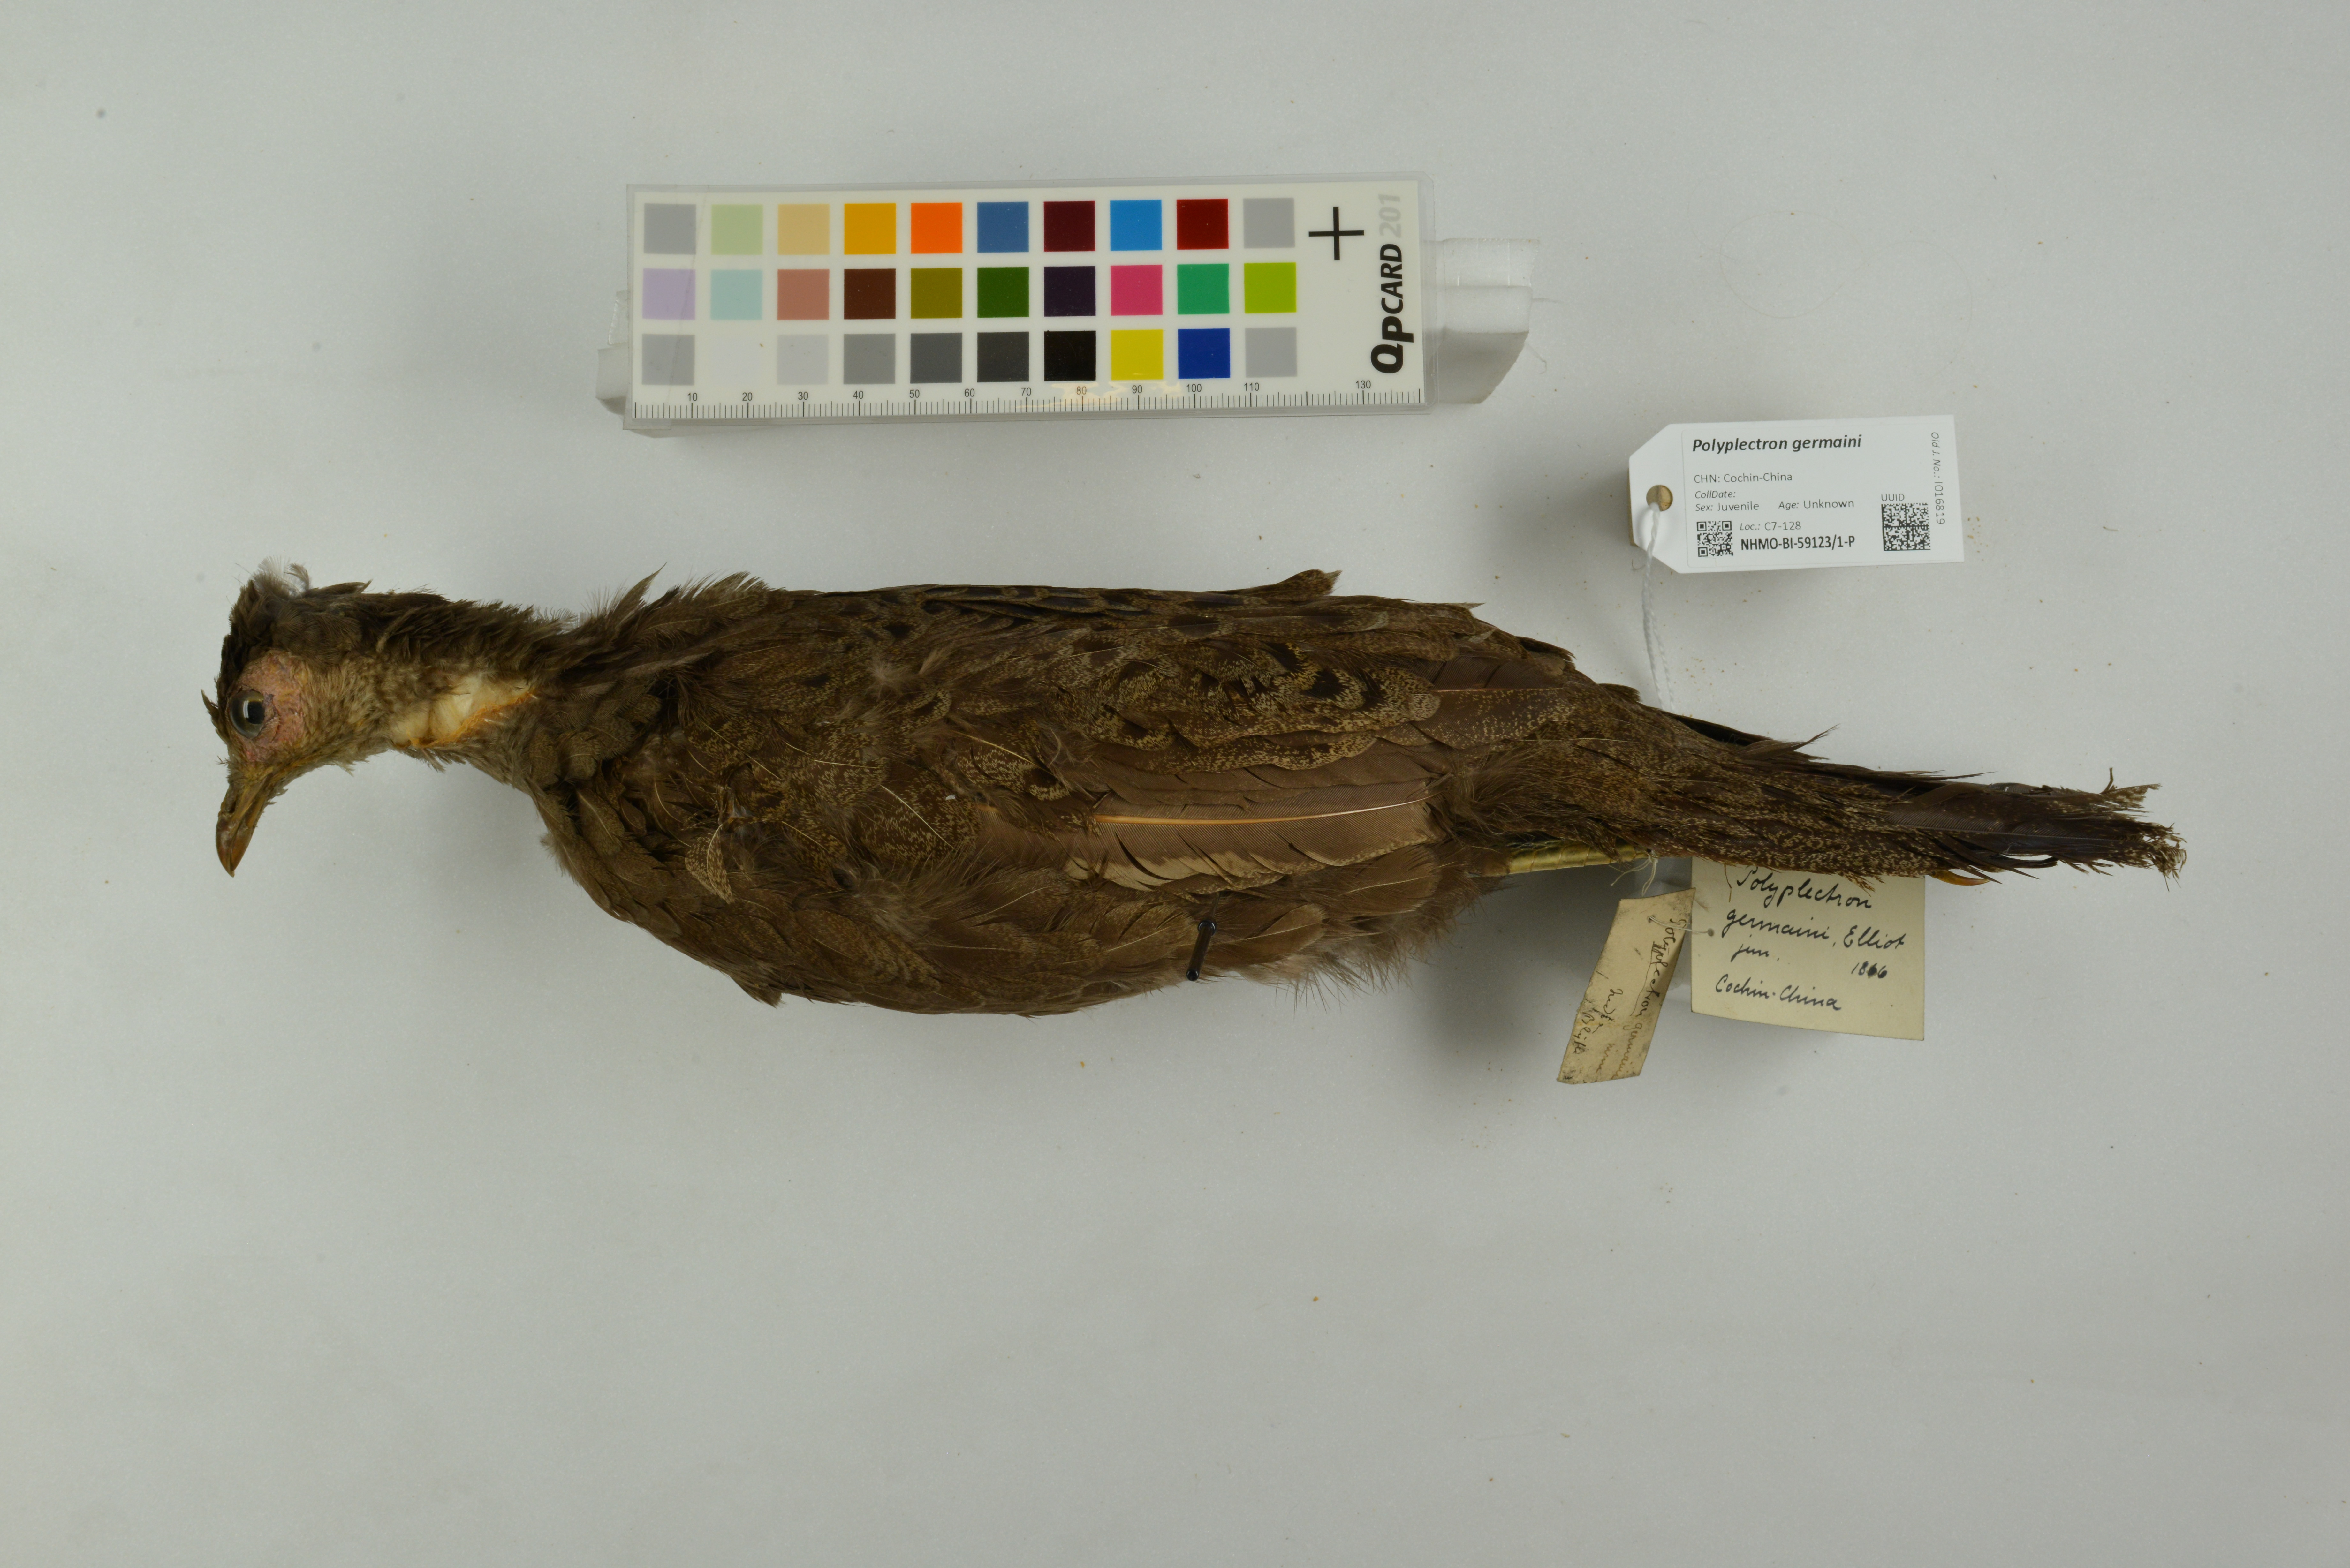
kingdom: Animalia
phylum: Chordata
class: Aves
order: Galliformes
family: Phasianidae
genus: Polyplectron
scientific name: Polyplectron germaini
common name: Germain's peacock-pheasant
